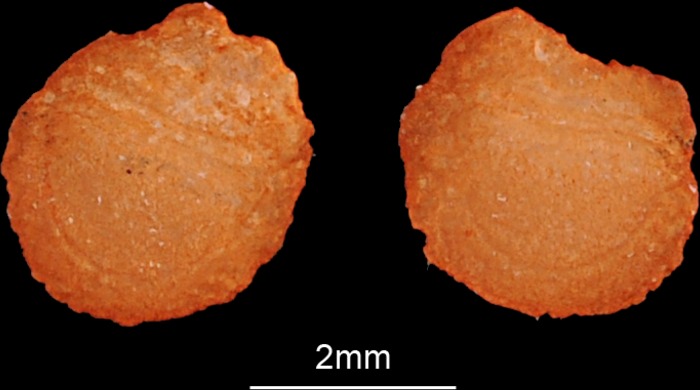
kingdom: Animalia
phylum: Chordata
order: Atheriniformes
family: Atherinidae
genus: Atherinomorus
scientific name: Atherinomorus lacunosus
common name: Hardyhead silverside
